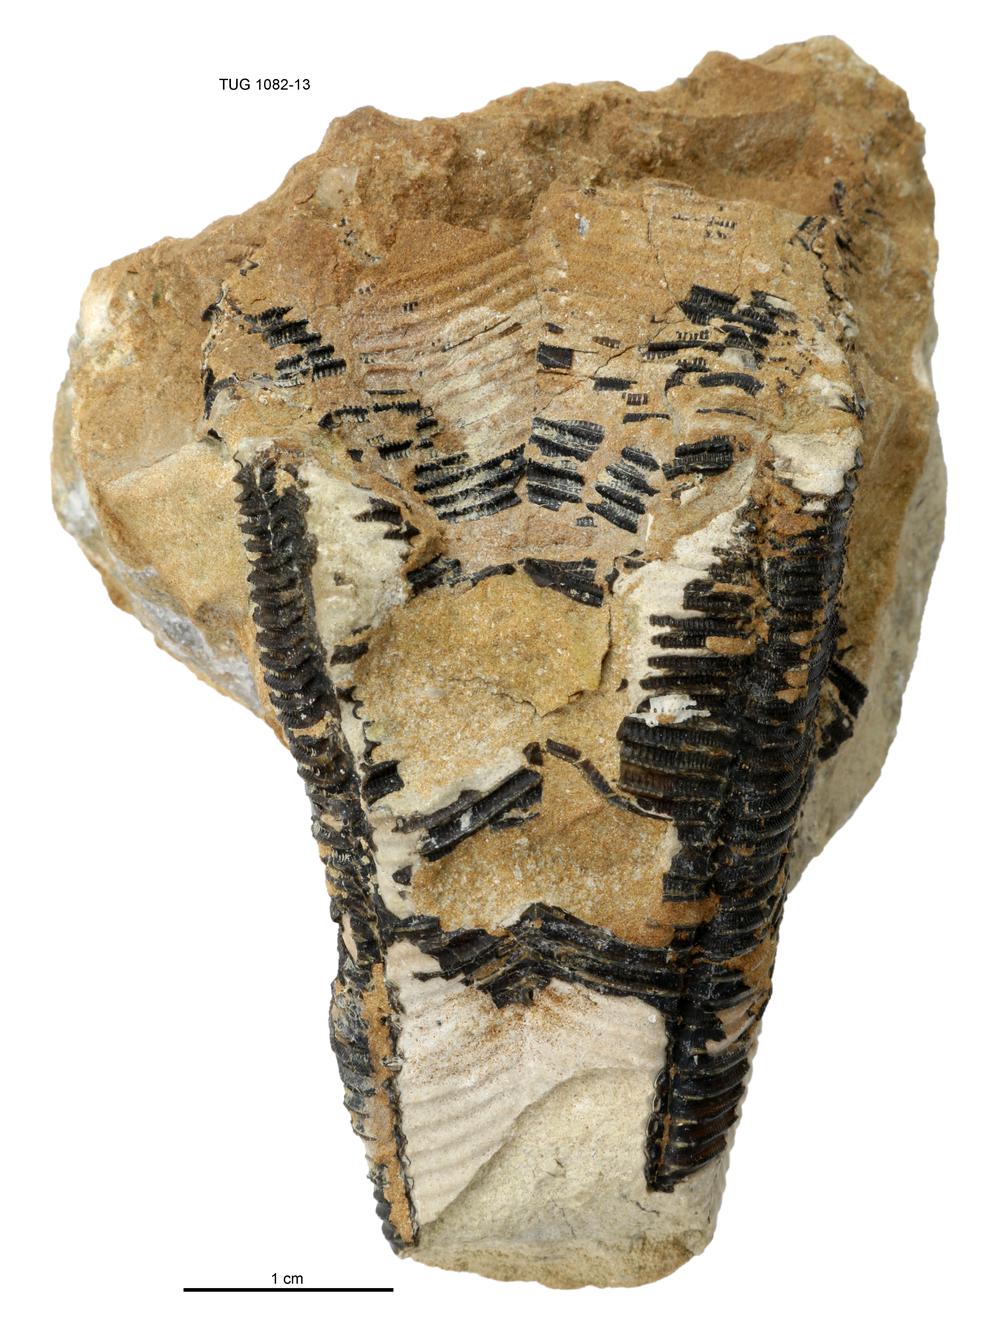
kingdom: Animalia
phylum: Cnidaria
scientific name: Cnidaria
